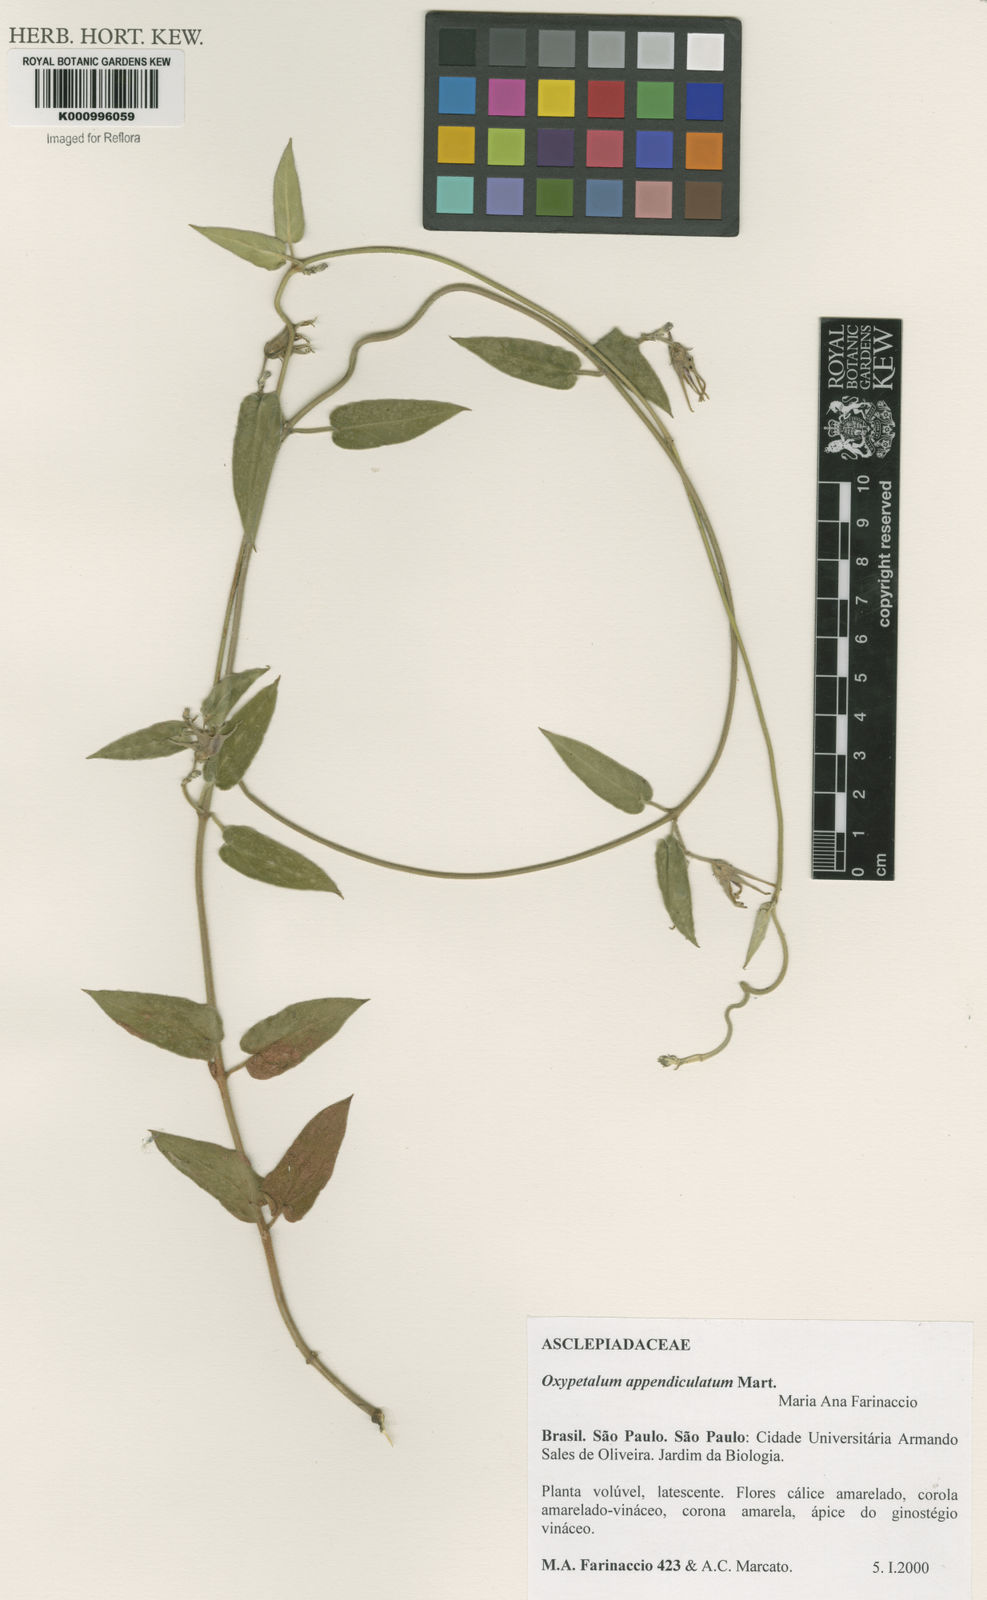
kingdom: Plantae
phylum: Tracheophyta
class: Magnoliopsida
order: Gentianales
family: Apocynaceae
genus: Oxypetalum
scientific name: Oxypetalum appendiculatum
